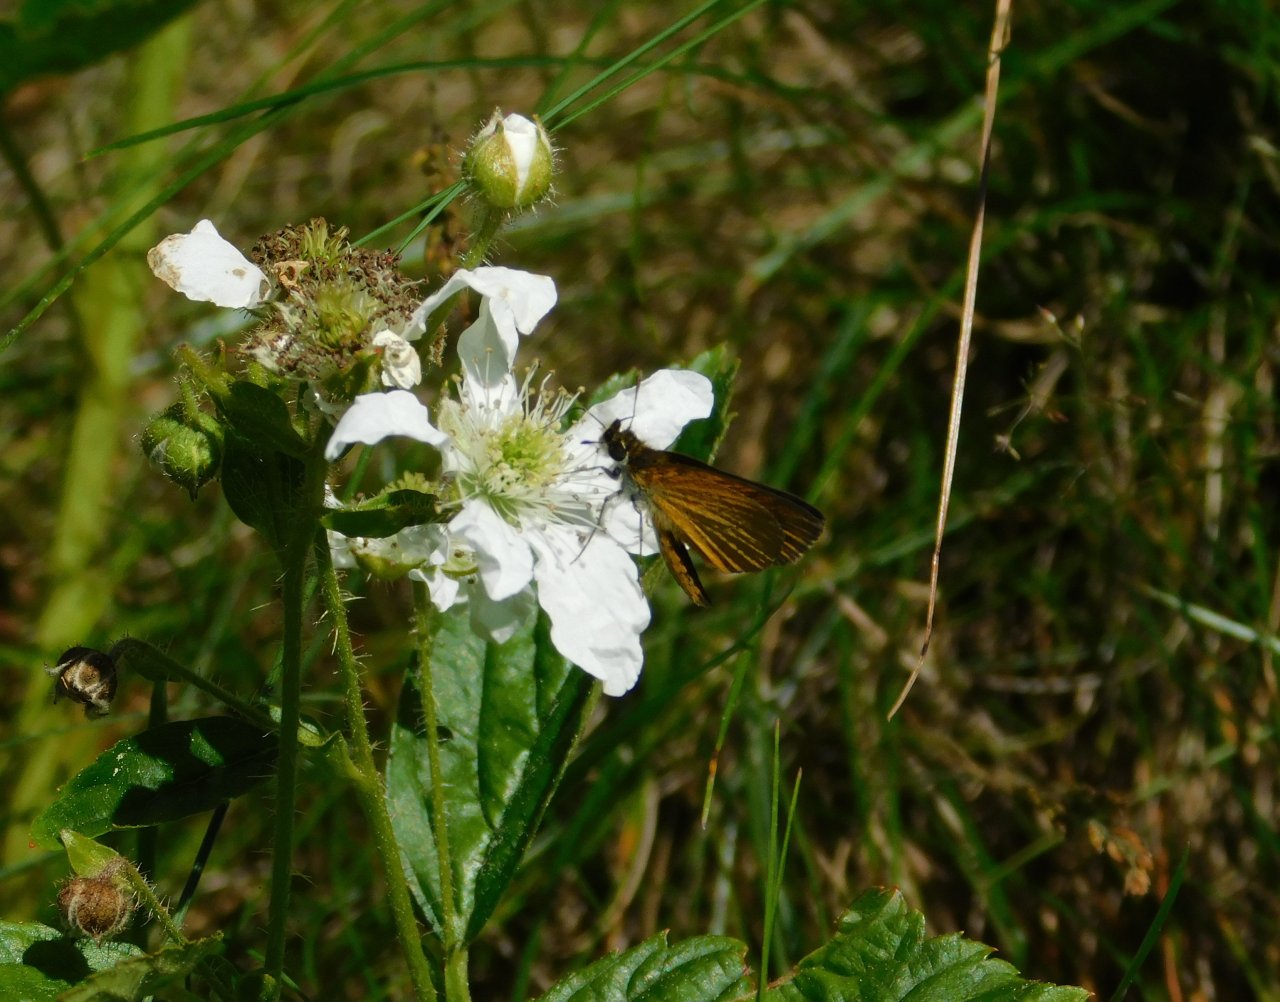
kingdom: Animalia
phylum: Arthropoda
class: Insecta
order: Lepidoptera
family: Hesperiidae
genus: Thymelicus
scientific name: Thymelicus lineola
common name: European Skipper
